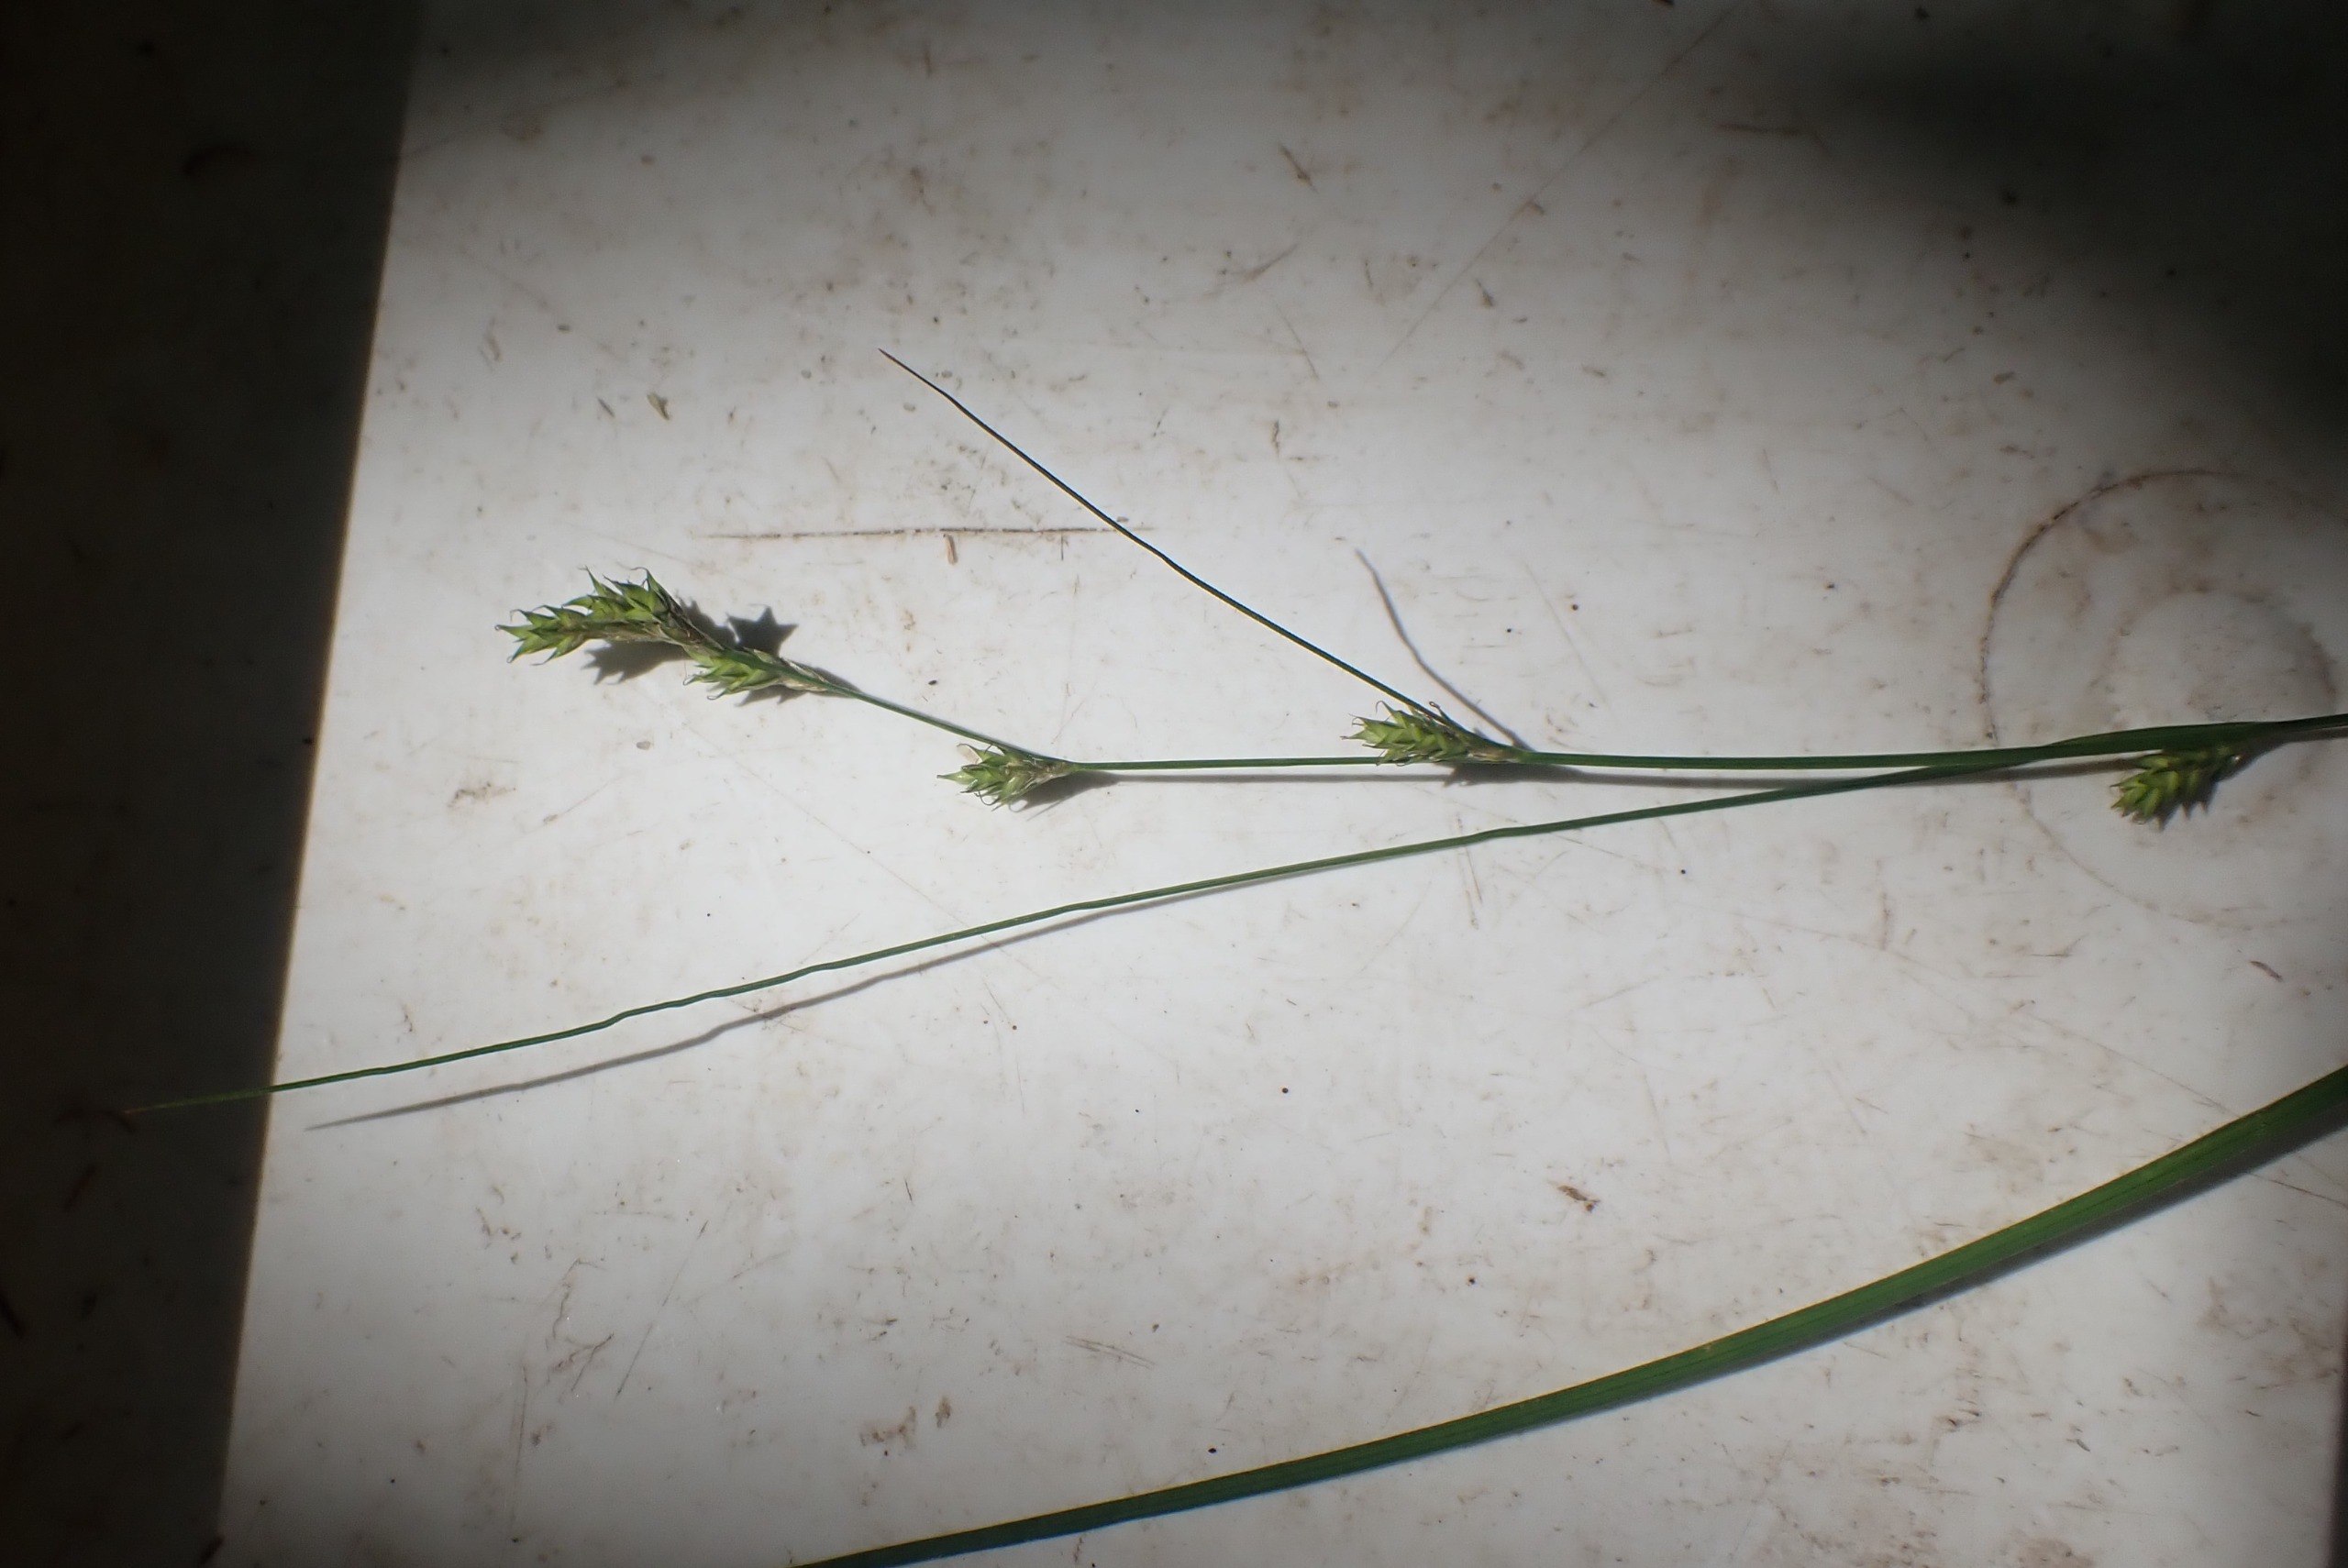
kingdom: Plantae
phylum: Tracheophyta
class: Liliopsida
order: Poales
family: Cyperaceae
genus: Carex
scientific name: Carex remota
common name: Akselblomstret star
